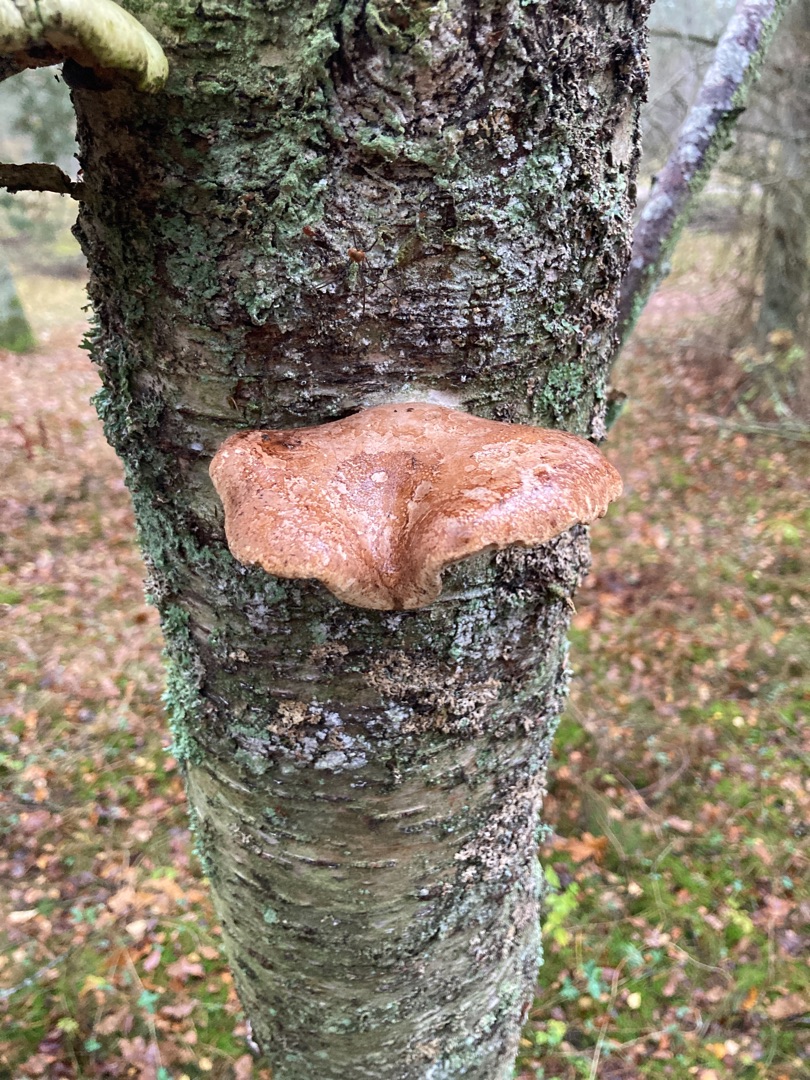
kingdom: Fungi
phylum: Basidiomycota
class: Agaricomycetes
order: Polyporales
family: Fomitopsidaceae
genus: Fomitopsis
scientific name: Fomitopsis betulina
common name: Birkeporesvamp
